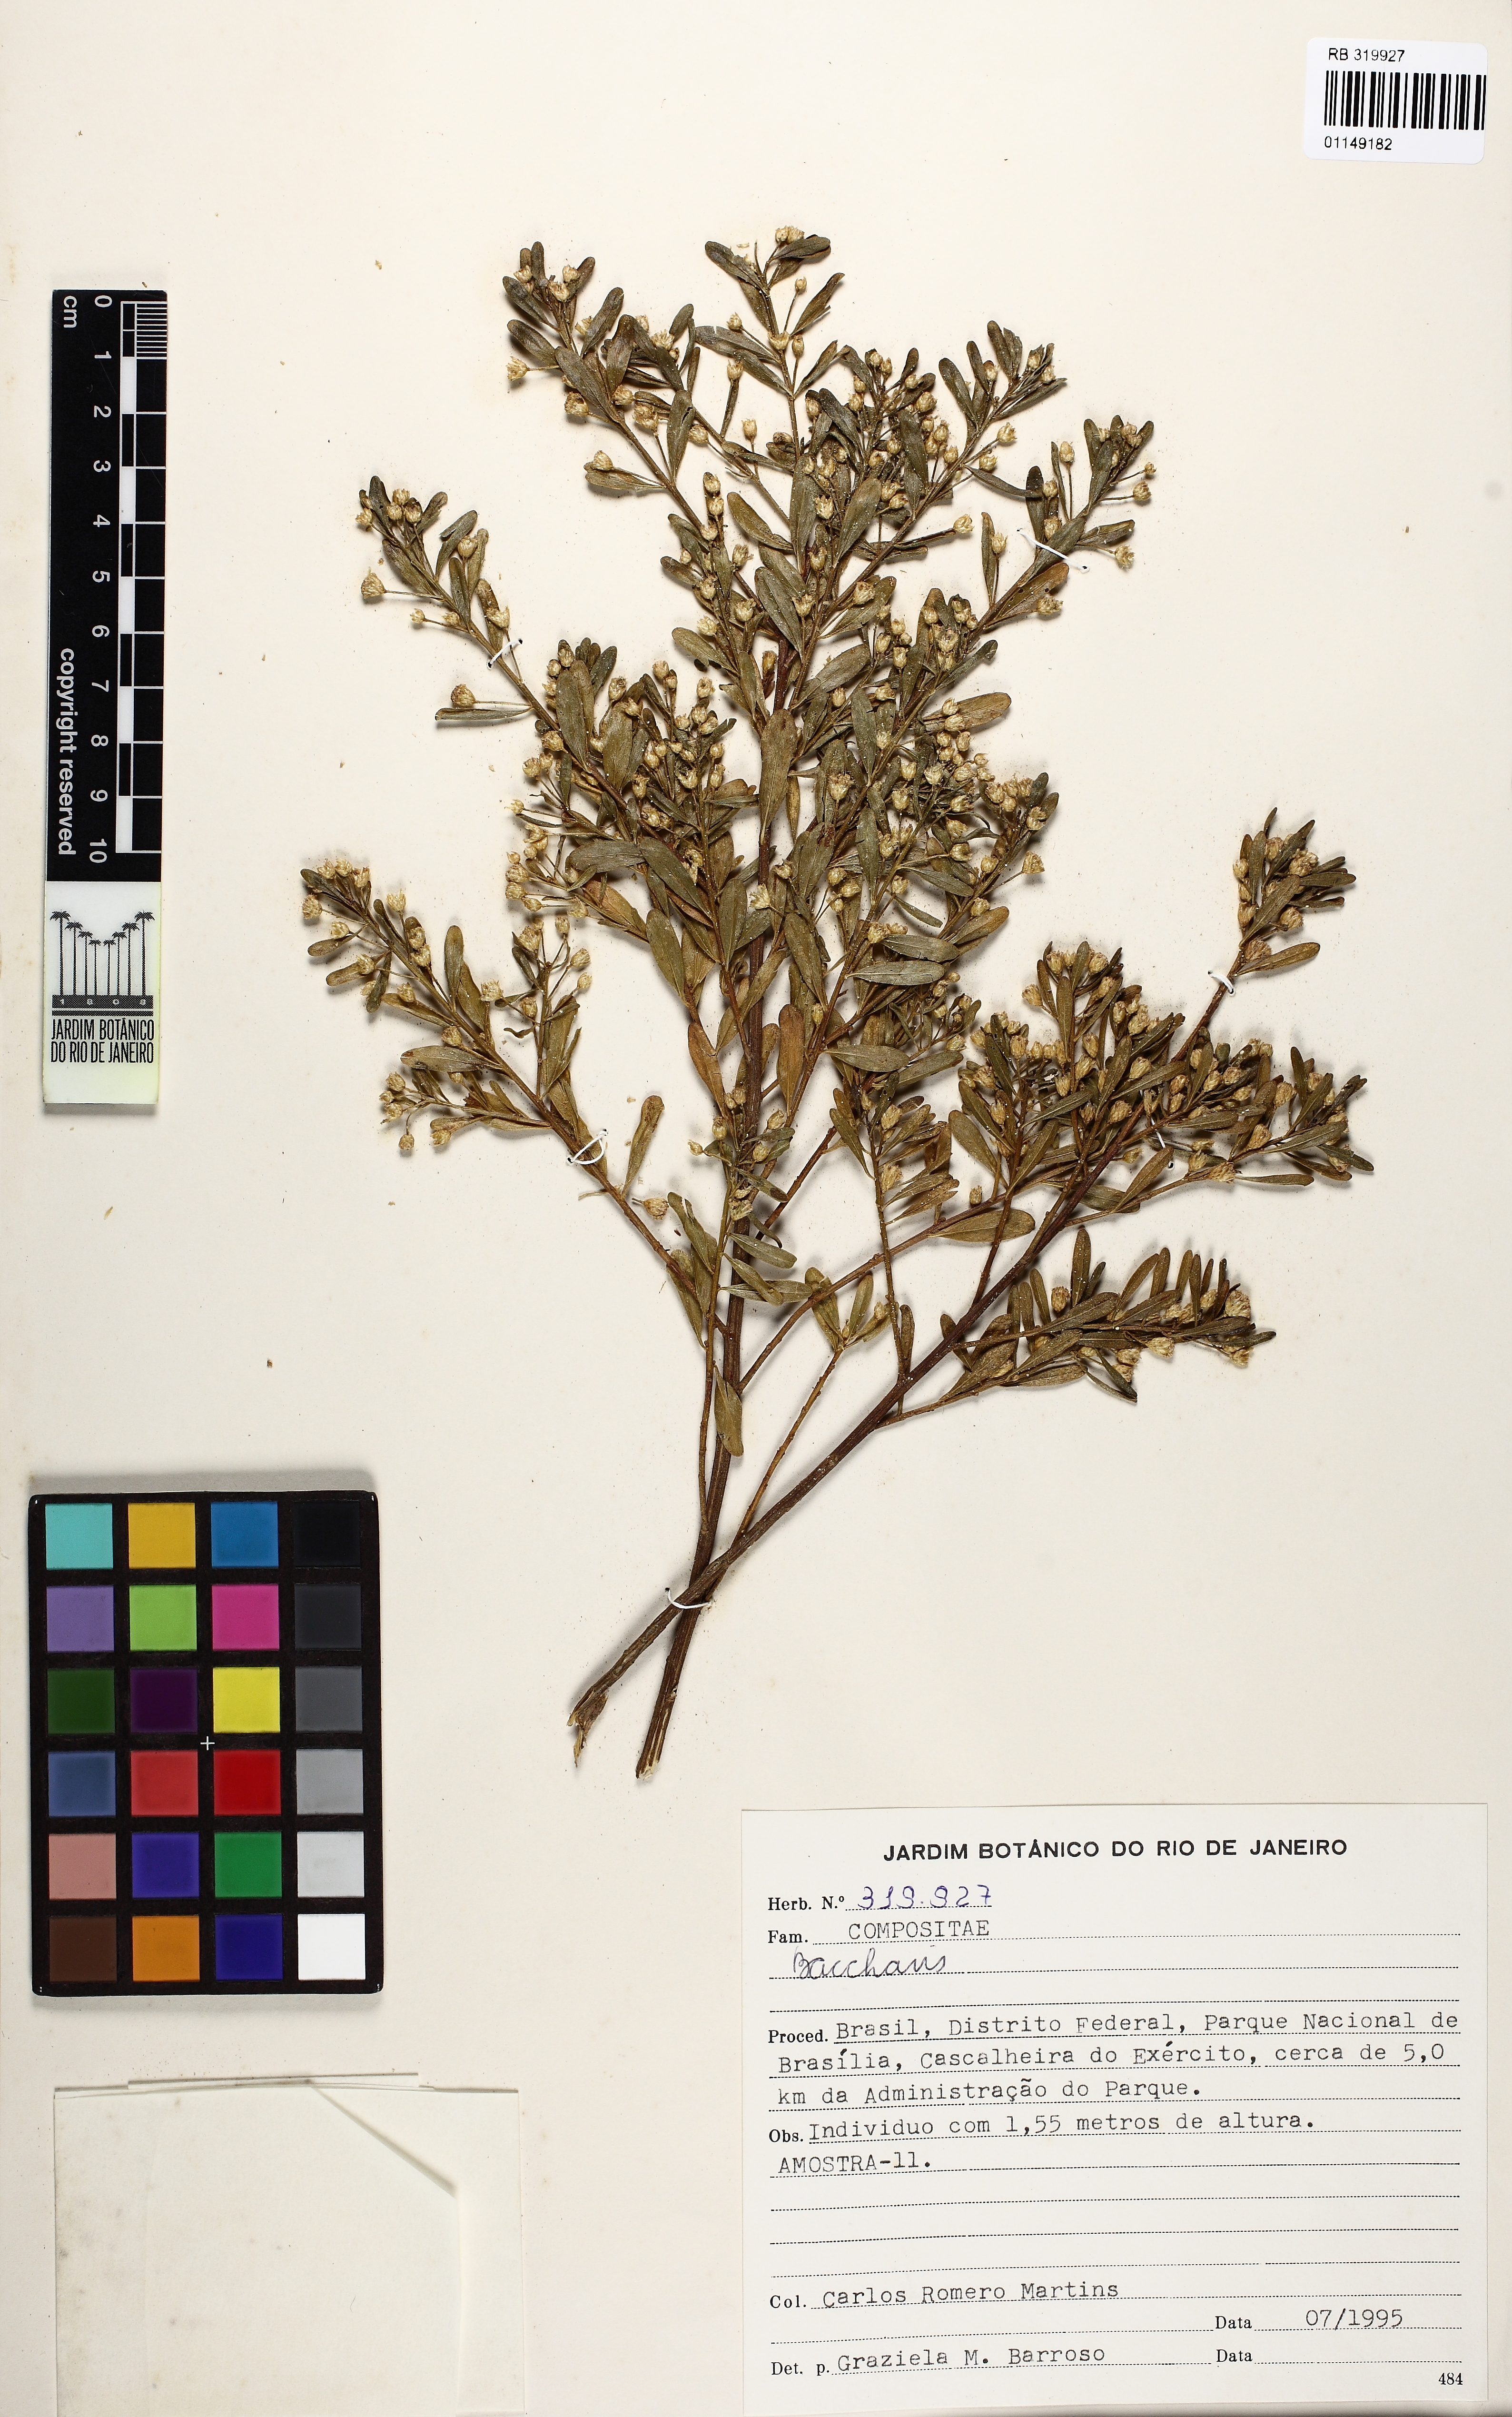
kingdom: Plantae
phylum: Tracheophyta
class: Magnoliopsida
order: Asterales
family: Asteraceae
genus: Baccharis
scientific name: Baccharis reticularia
